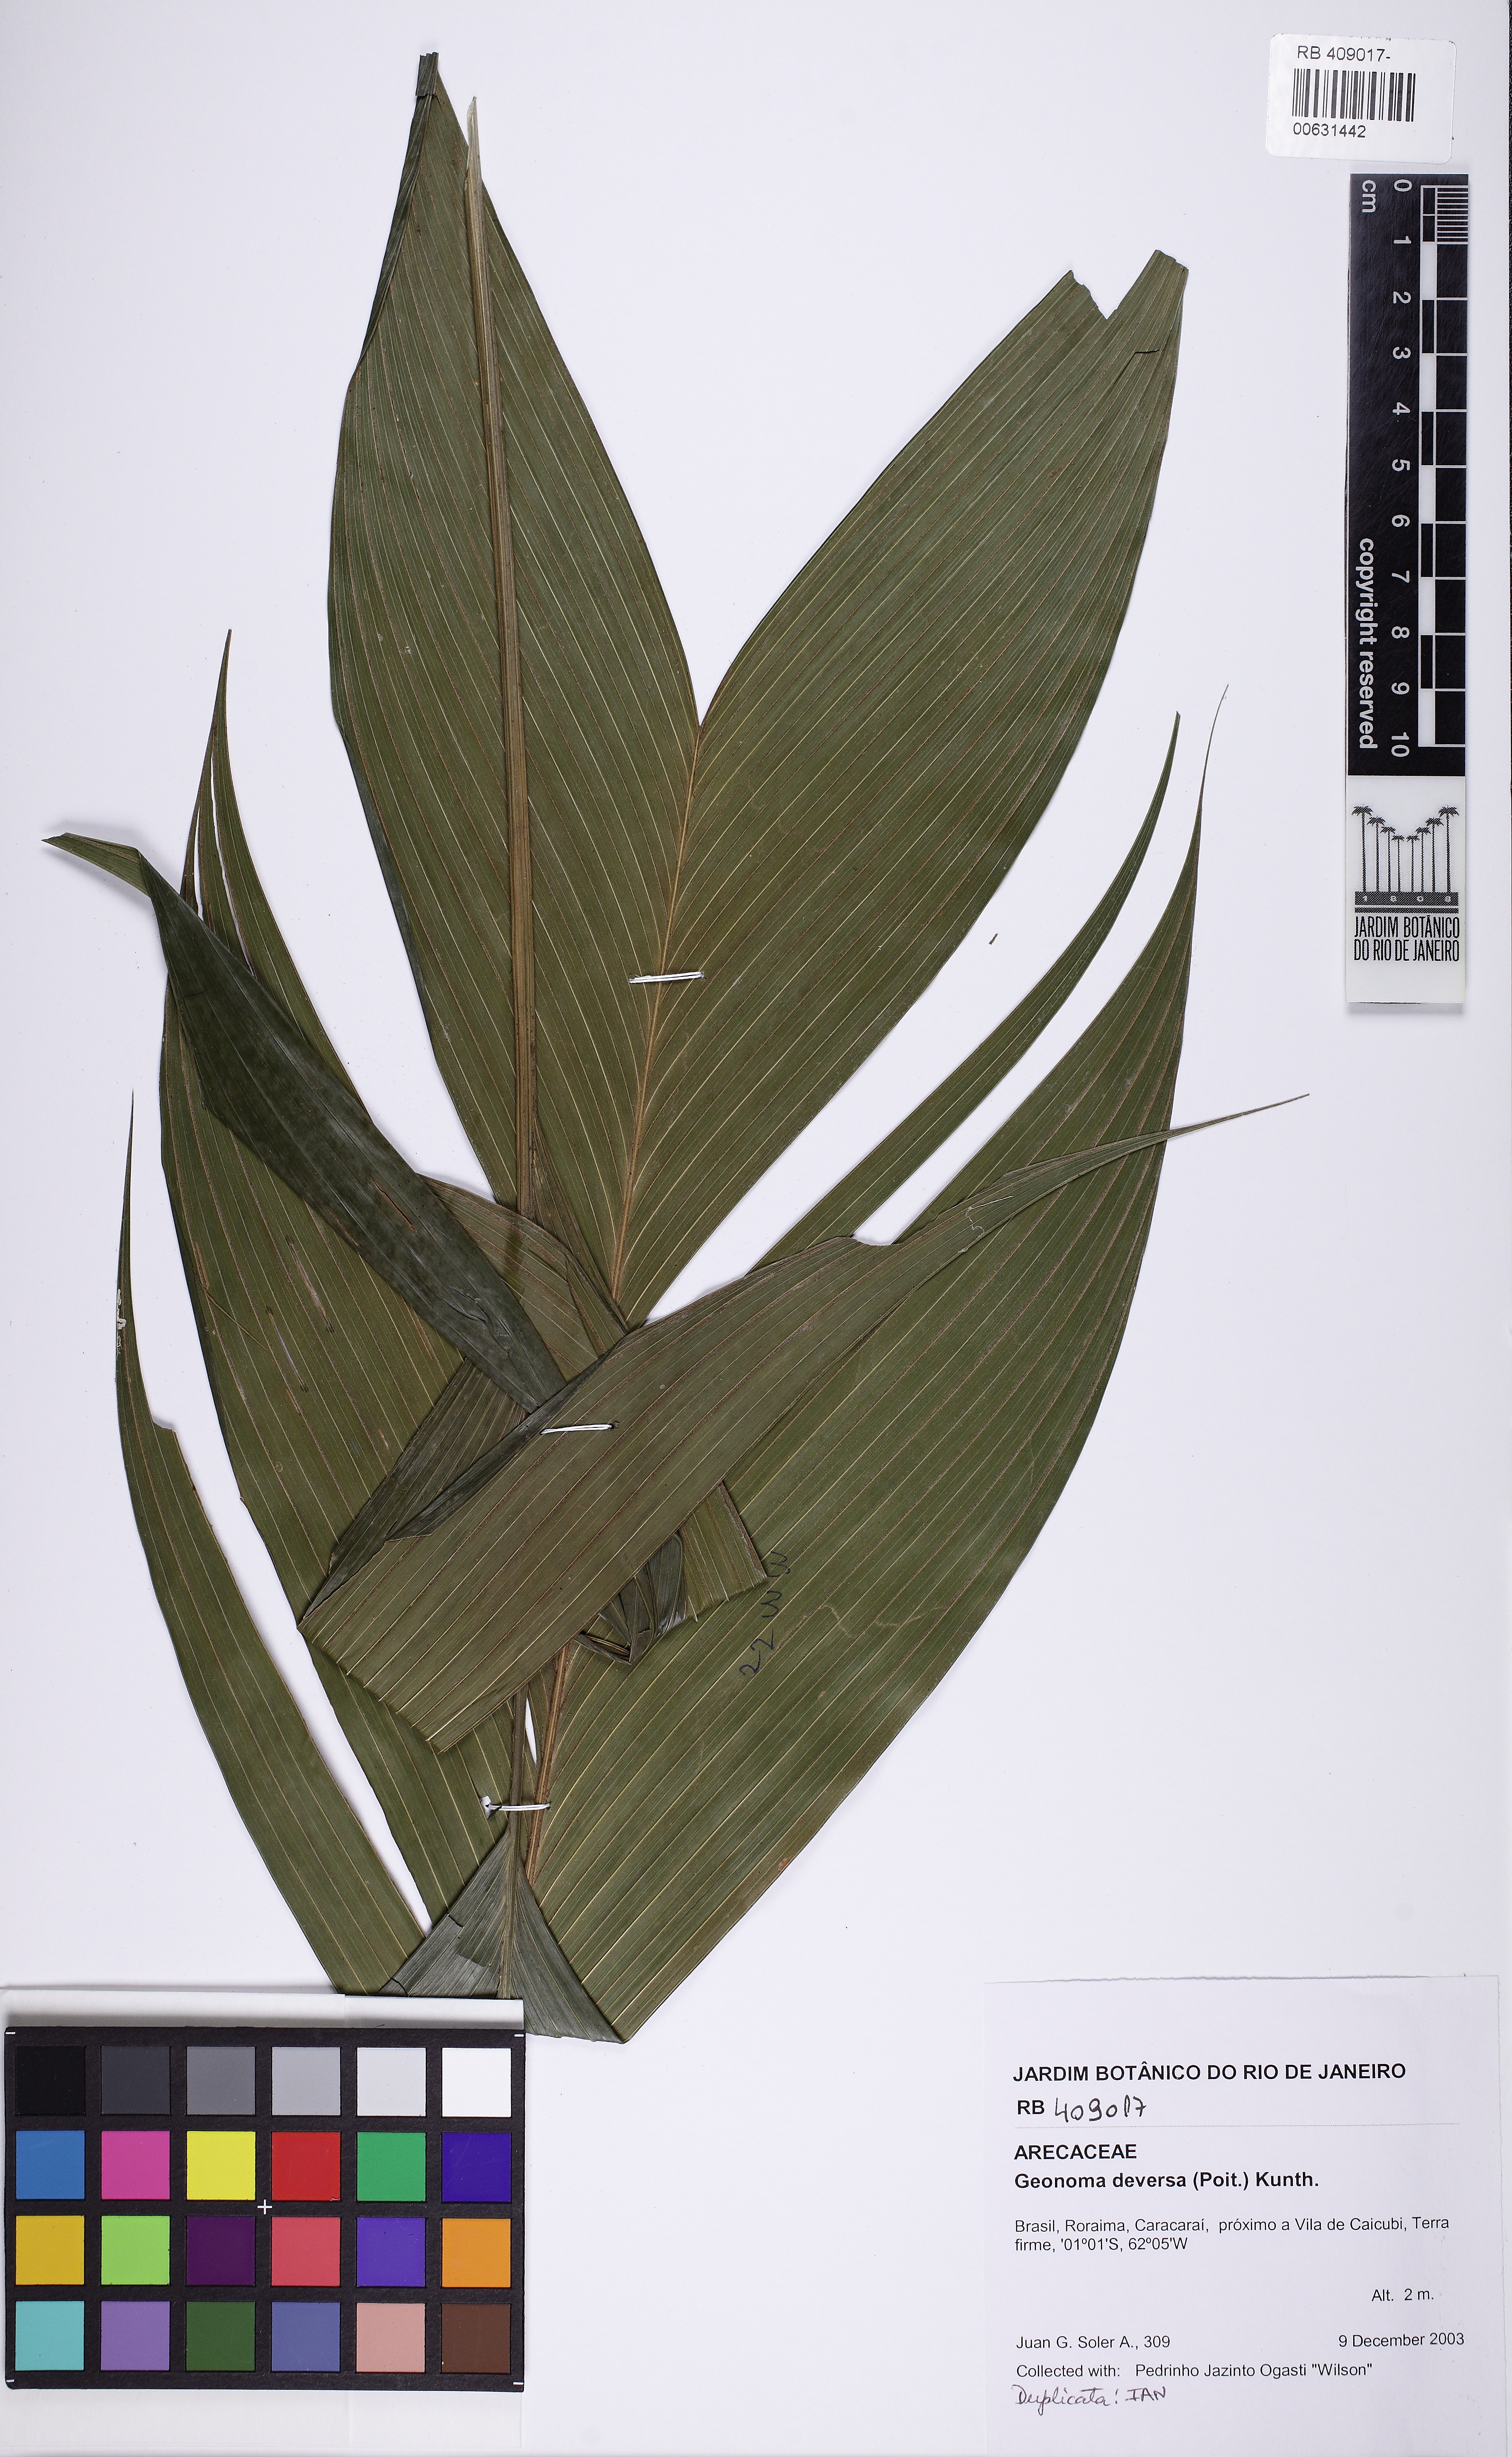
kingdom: Plantae
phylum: Tracheophyta
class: Liliopsida
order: Arecales
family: Arecaceae
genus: Geonoma
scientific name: Geonoma deversa
